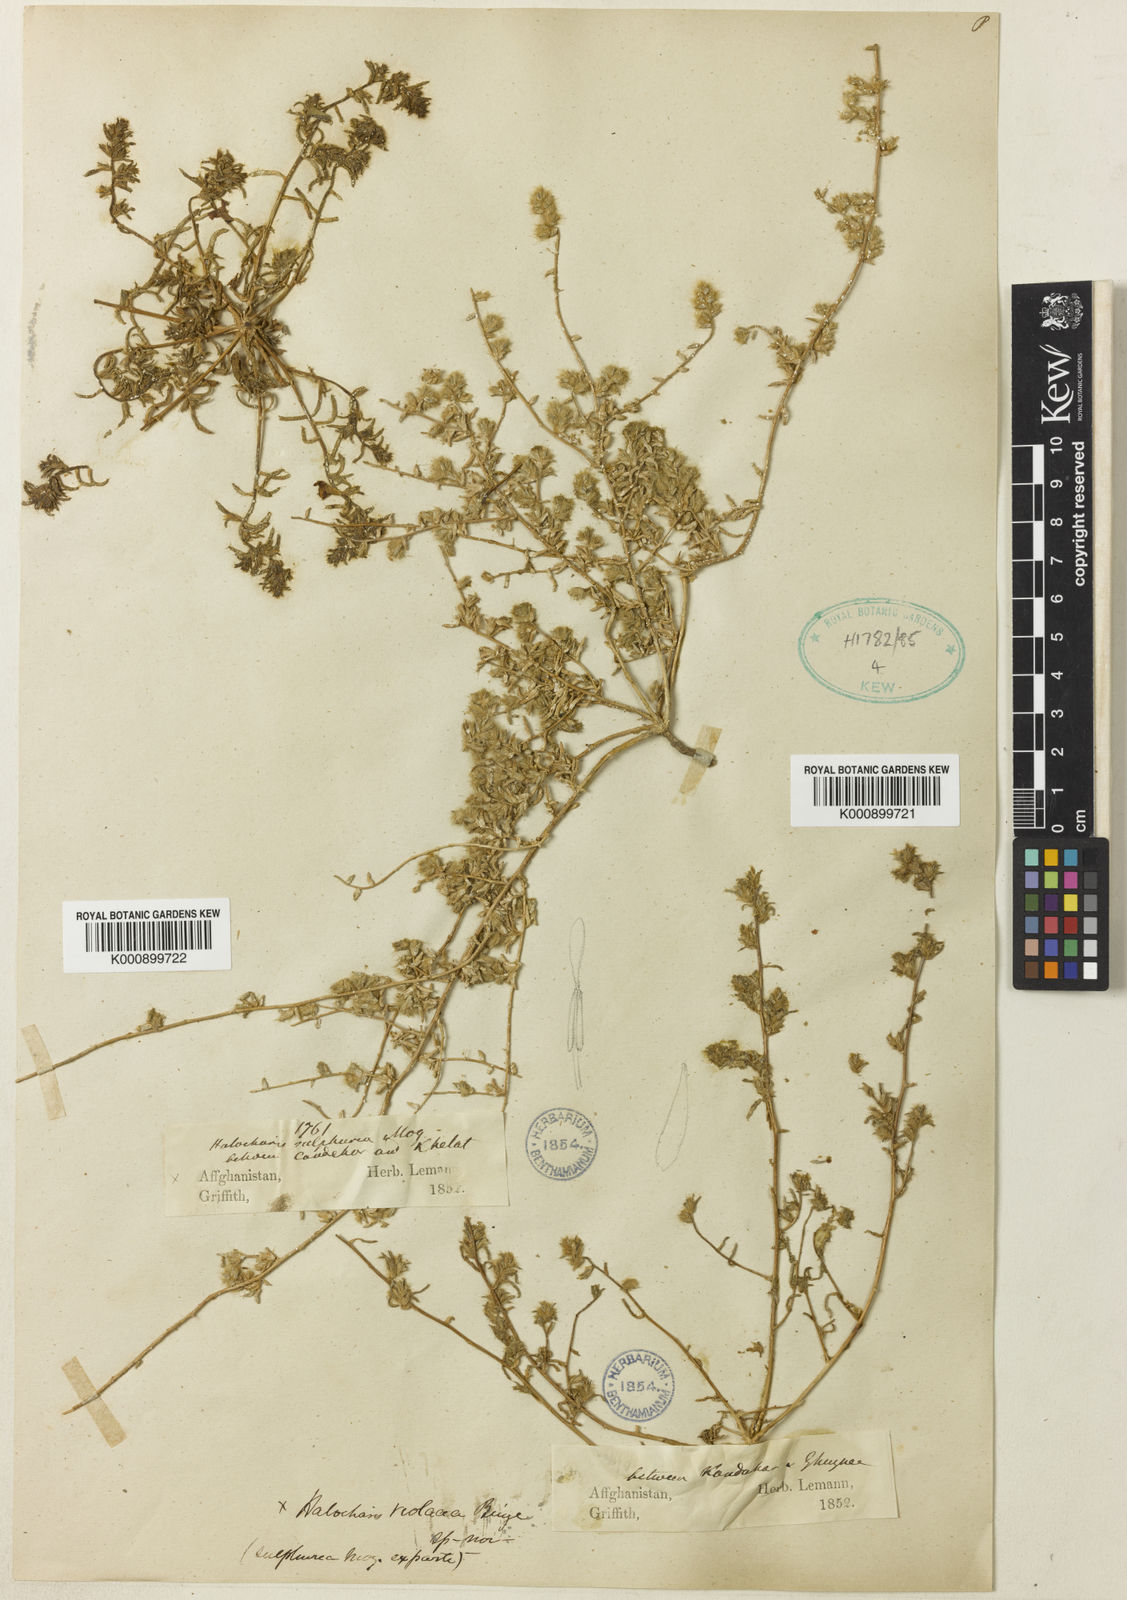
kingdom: Plantae
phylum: Tracheophyta
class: Magnoliopsida
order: Caryophyllales
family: Amaranthaceae
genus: Halocharis
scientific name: Halocharis violacea
